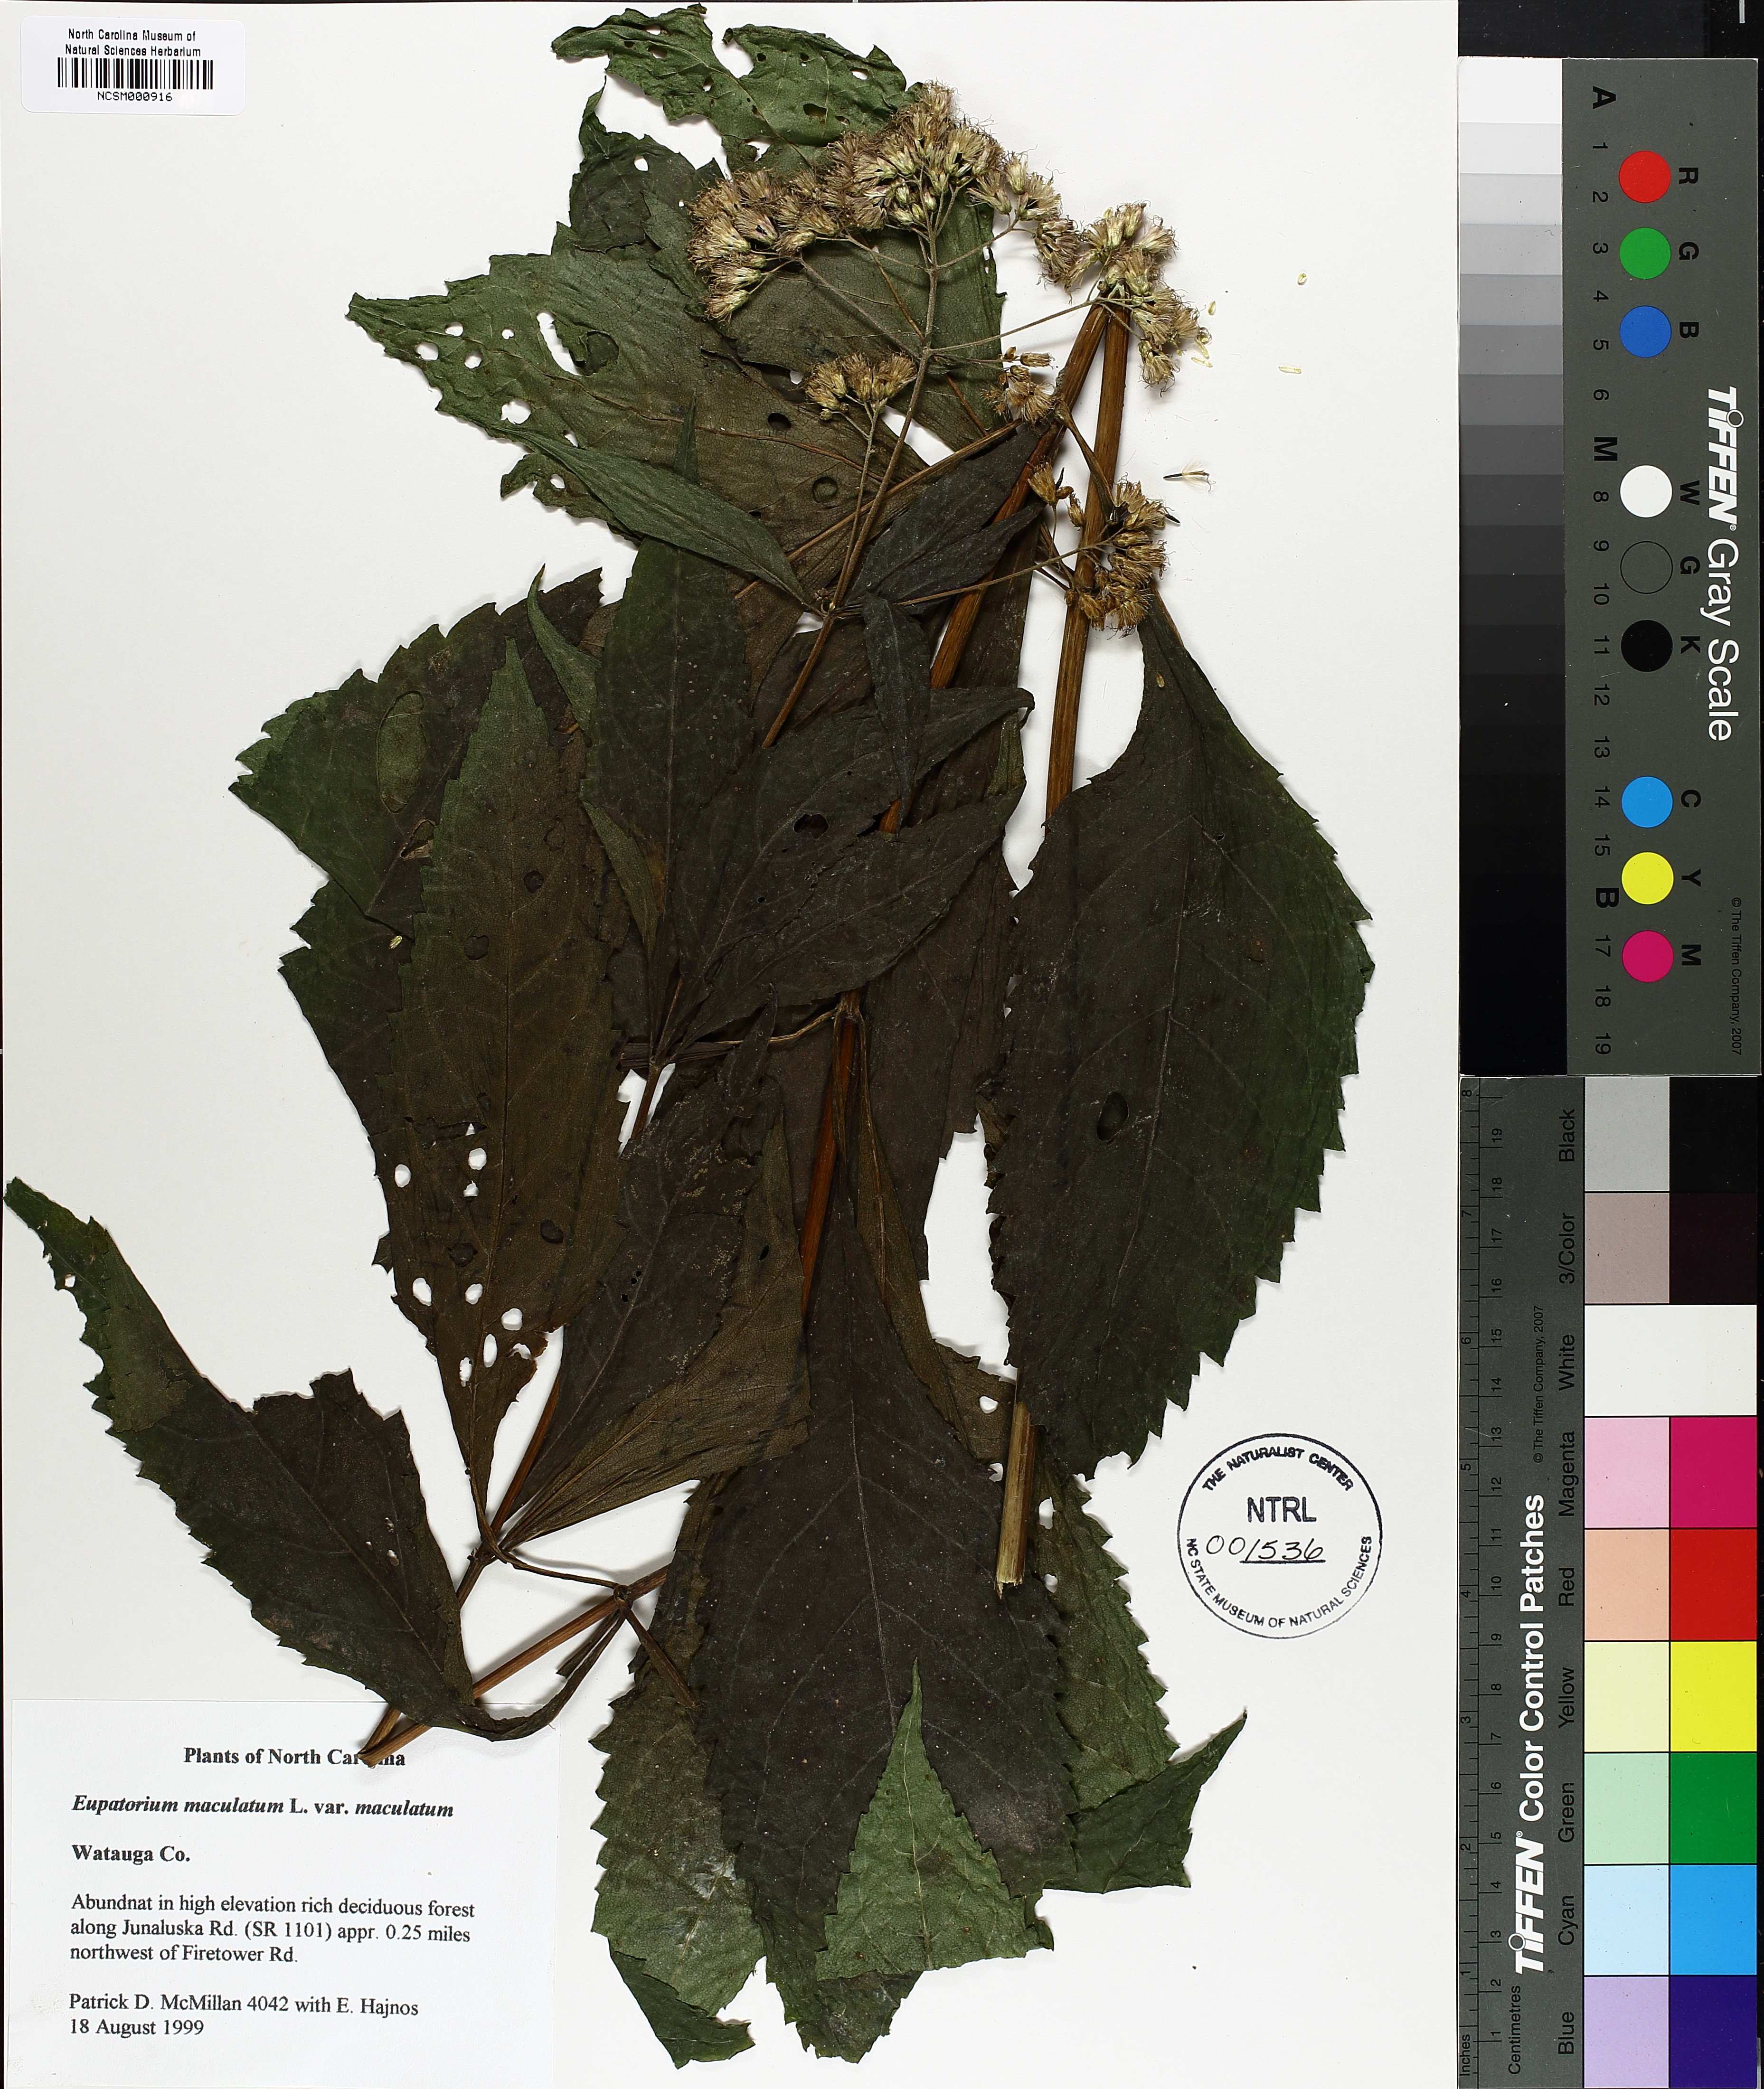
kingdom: Plantae
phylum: Tracheophyta
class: Magnoliopsida
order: Asterales
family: Asteraceae
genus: Eutrochium
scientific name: Eutrochium maculatum
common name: Spotted joe pye weed
